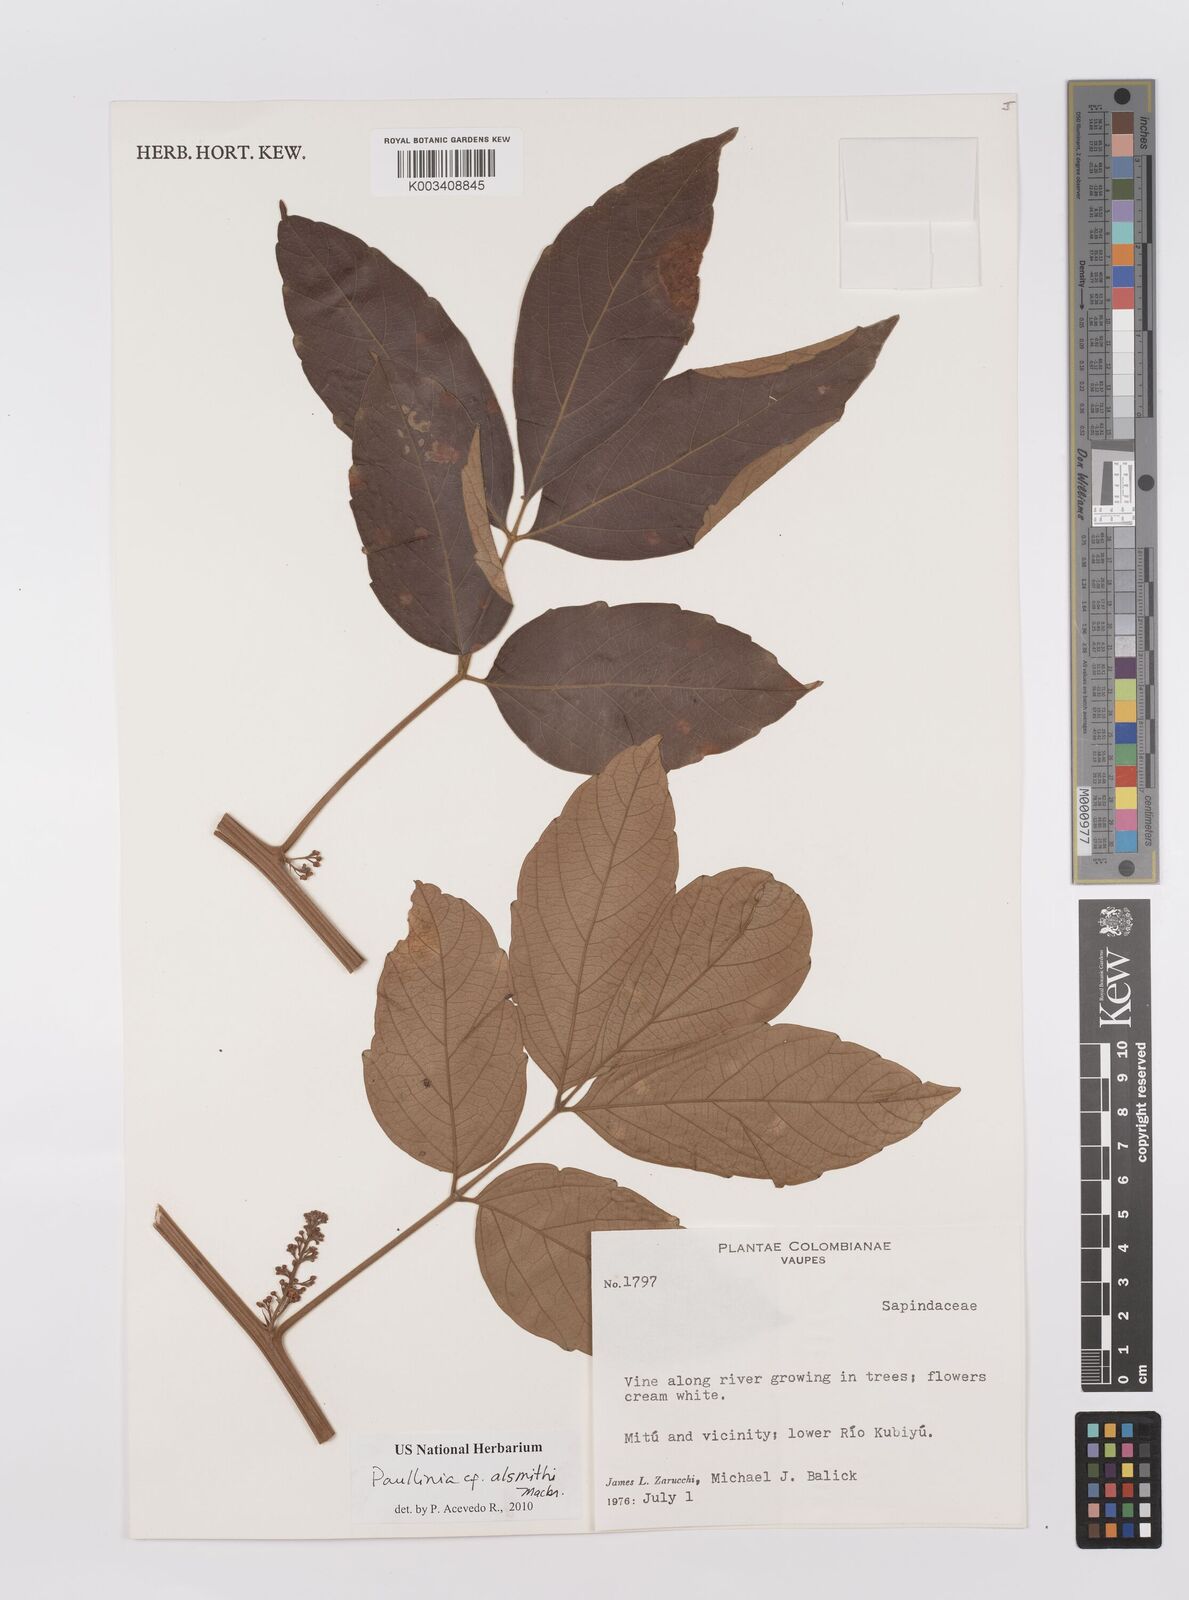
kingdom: Plantae
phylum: Tracheophyta
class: Magnoliopsida
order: Sapindales
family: Sapindaceae
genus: Paullinia
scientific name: Paullinia alsmithii
